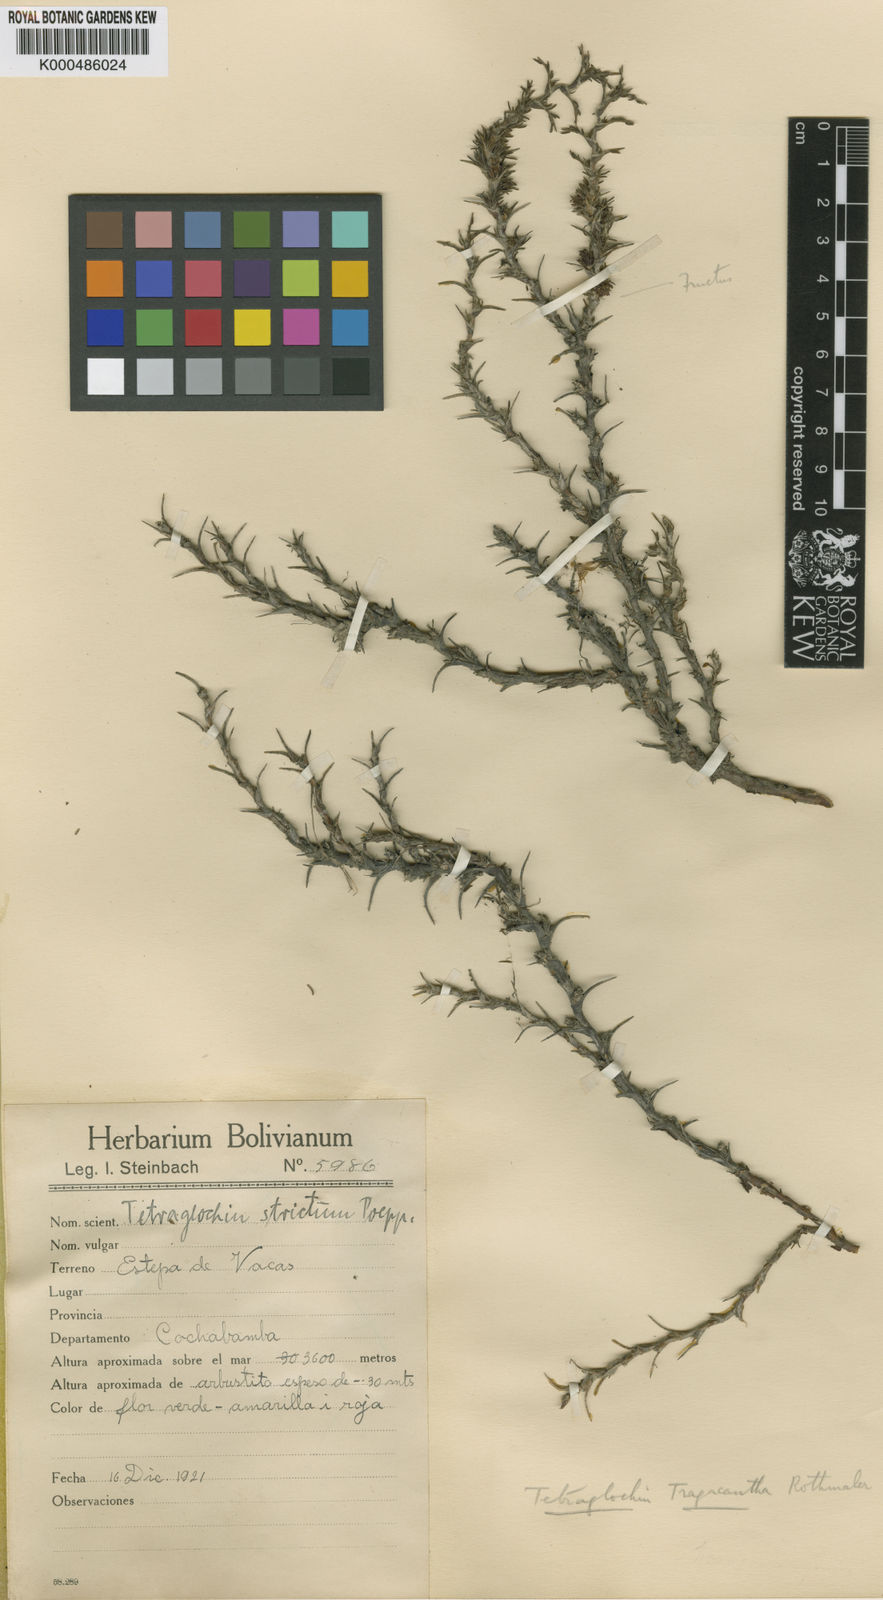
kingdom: Plantae
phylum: Tracheophyta
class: Magnoliopsida
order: Rosales
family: Rosaceae
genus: Margyricarpus
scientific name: Margyricarpus cristatus
